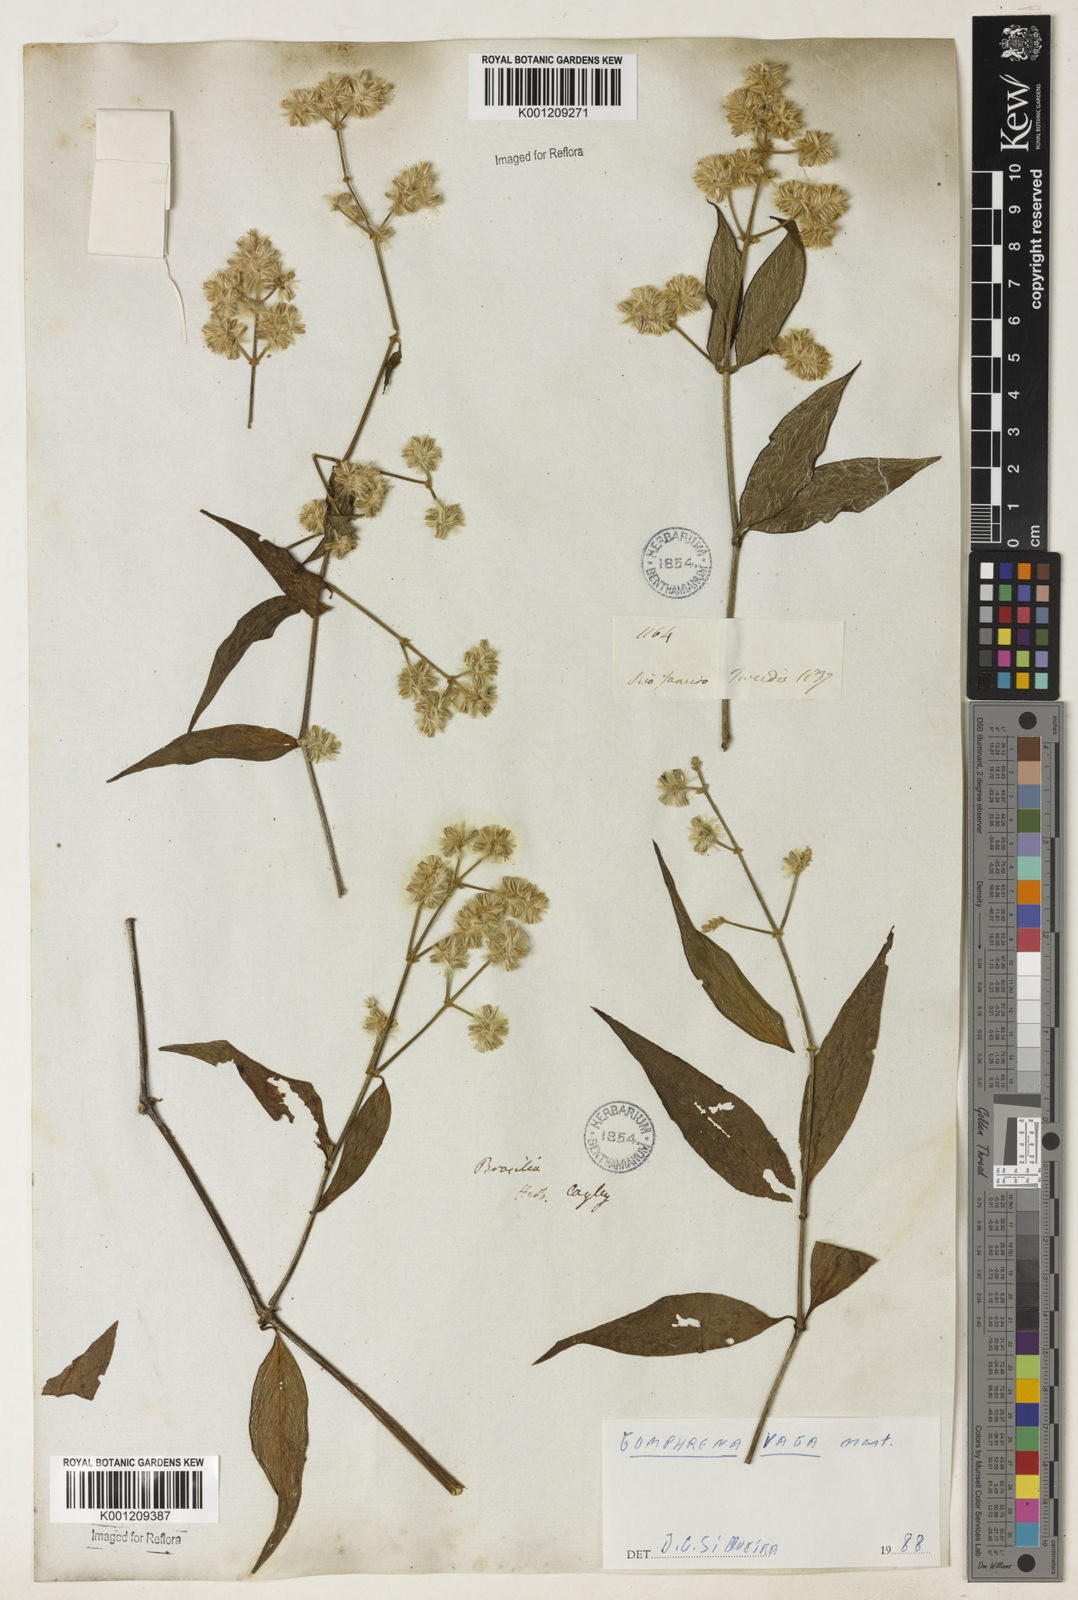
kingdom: Plantae
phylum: Tracheophyta
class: Magnoliopsida
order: Caryophyllales
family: Amaranthaceae
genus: Gomphrena
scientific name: Gomphrena vaga
